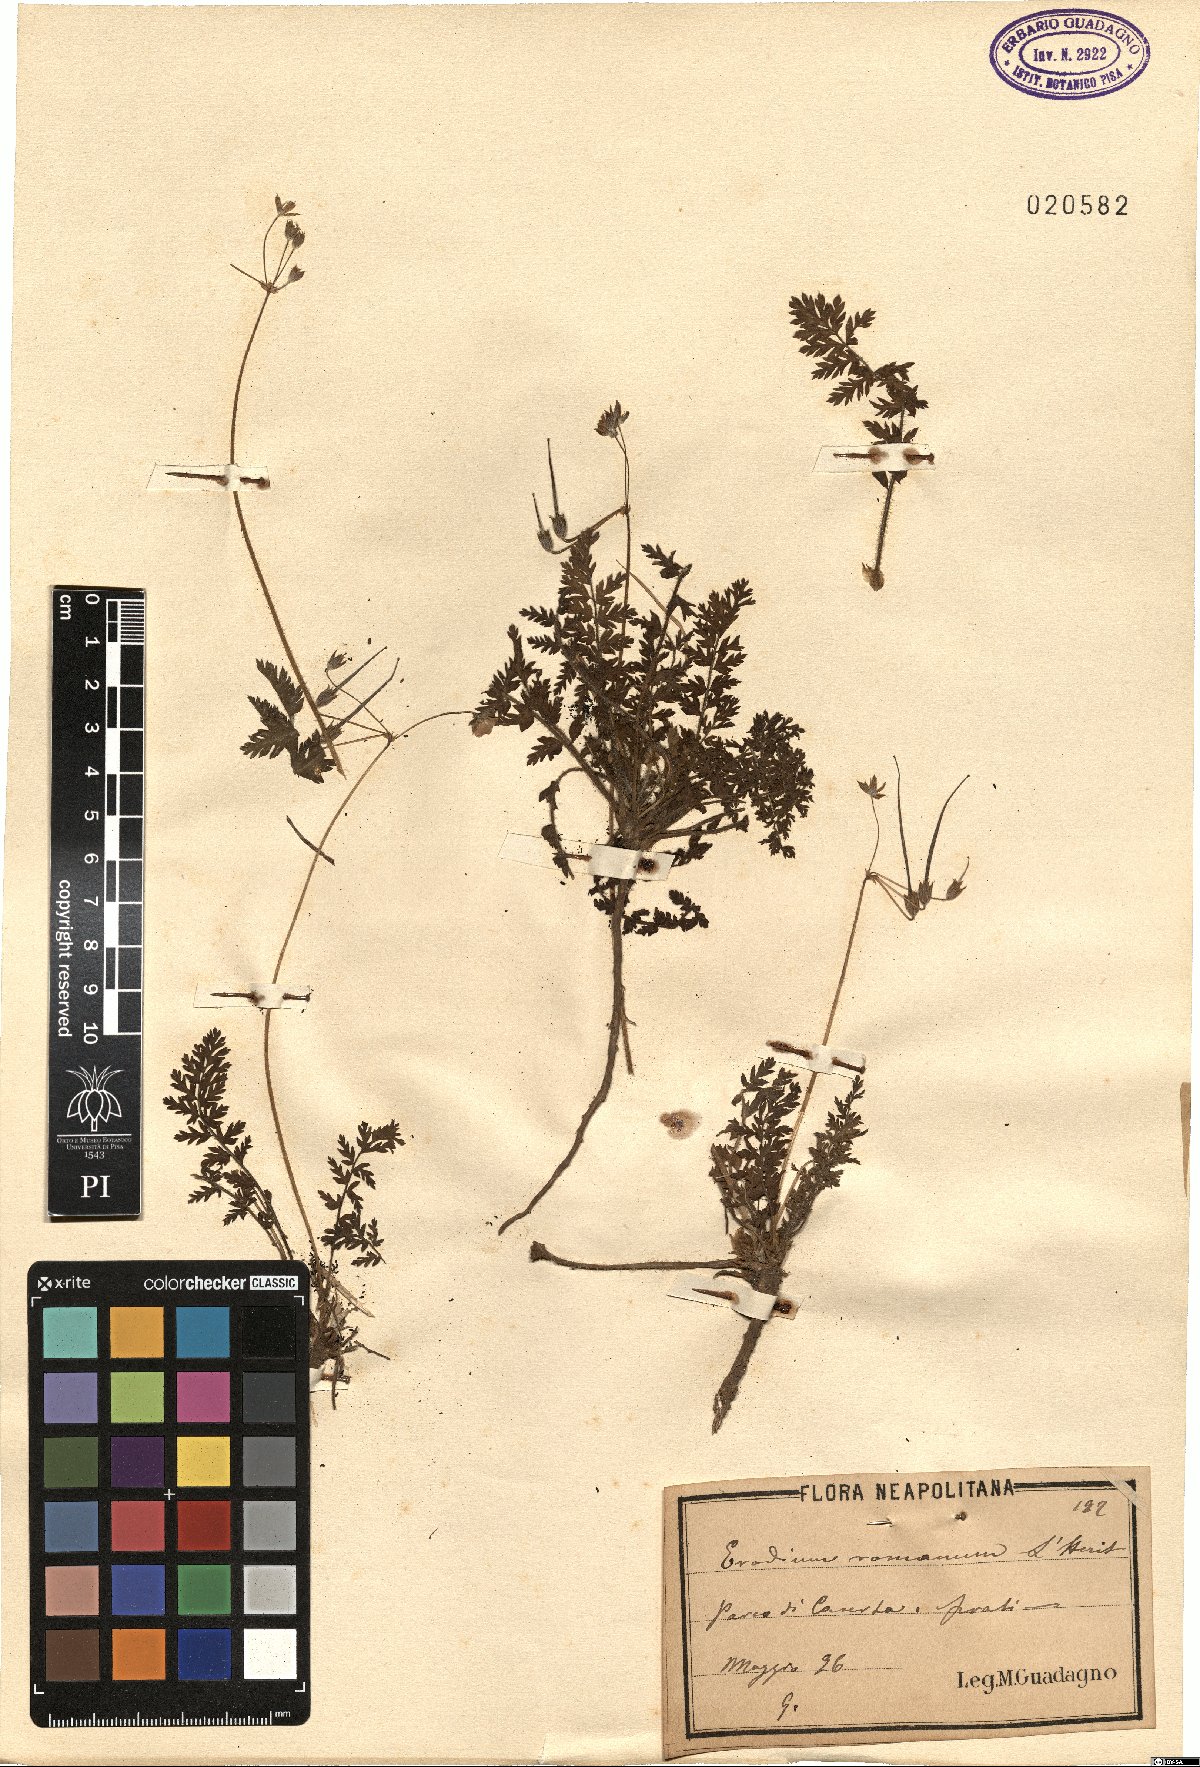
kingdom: Plantae
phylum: Tracheophyta
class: Magnoliopsida
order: Geraniales
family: Geraniaceae
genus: Erodium
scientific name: Erodium acaule
